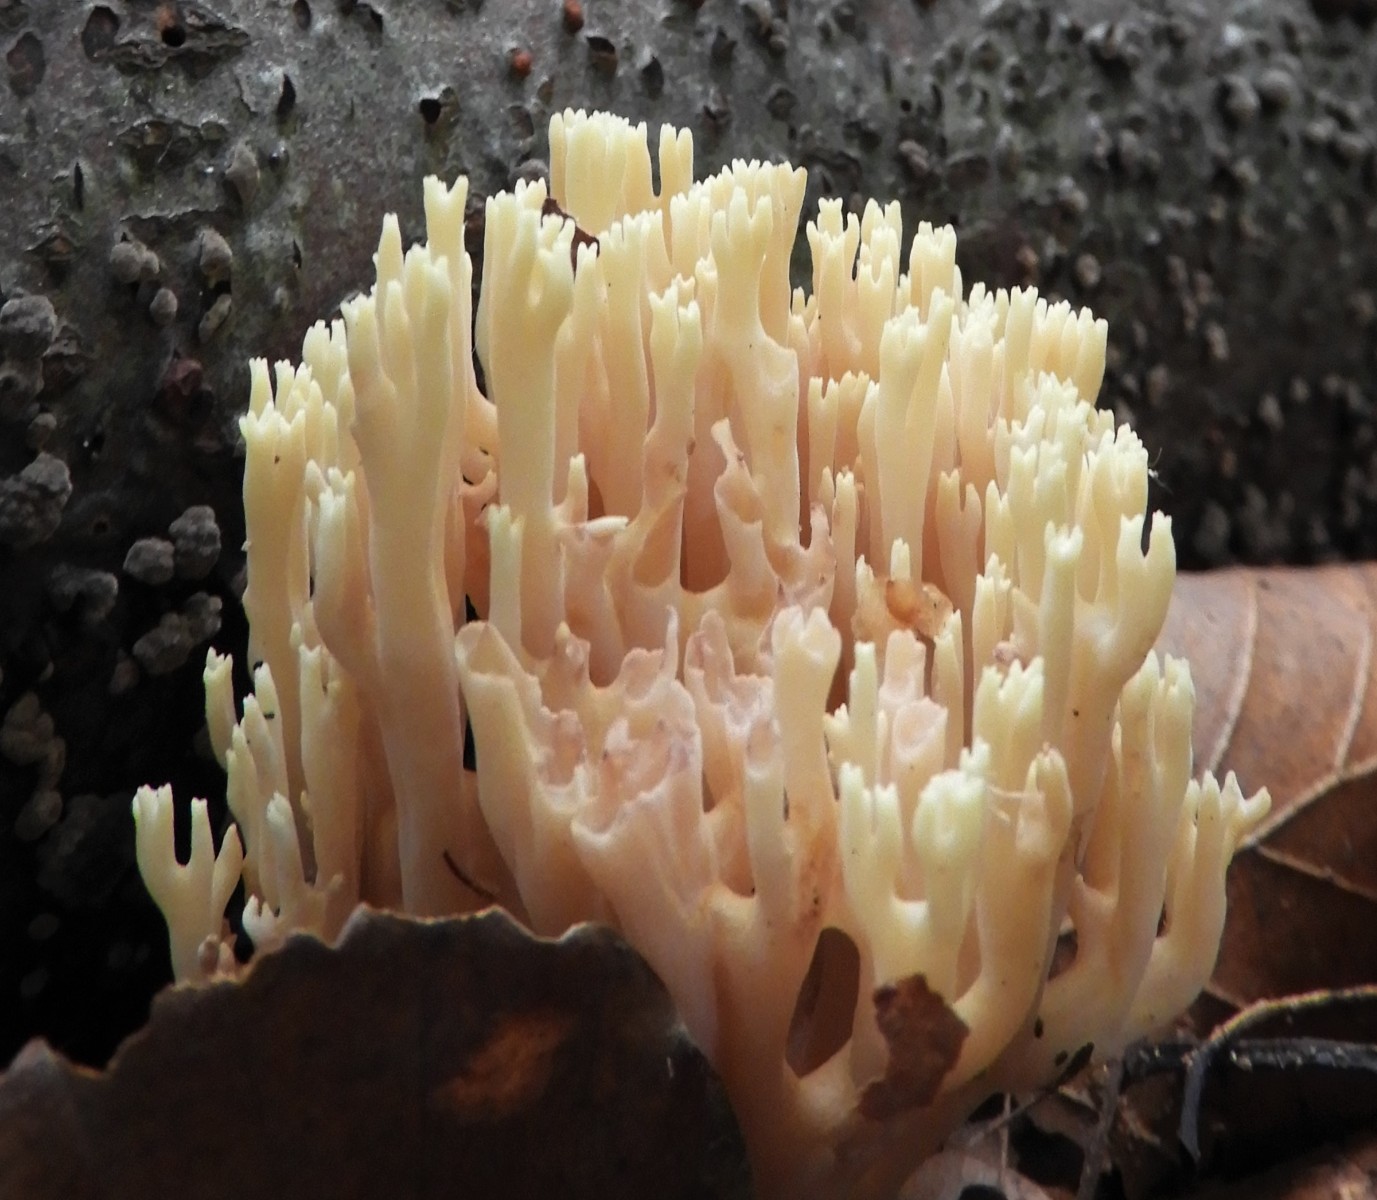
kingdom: Fungi
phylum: Basidiomycota
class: Agaricomycetes
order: Gomphales
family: Gomphaceae
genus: Ramaria
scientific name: Ramaria stricta
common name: rank koralsvamp
